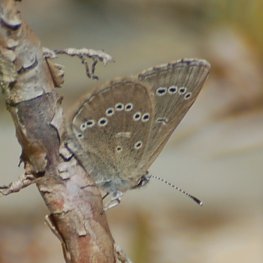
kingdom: Animalia
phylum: Arthropoda
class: Insecta
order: Lepidoptera
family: Lycaenidae
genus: Glaucopsyche
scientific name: Glaucopsyche lygdamus
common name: Silvery Blue
